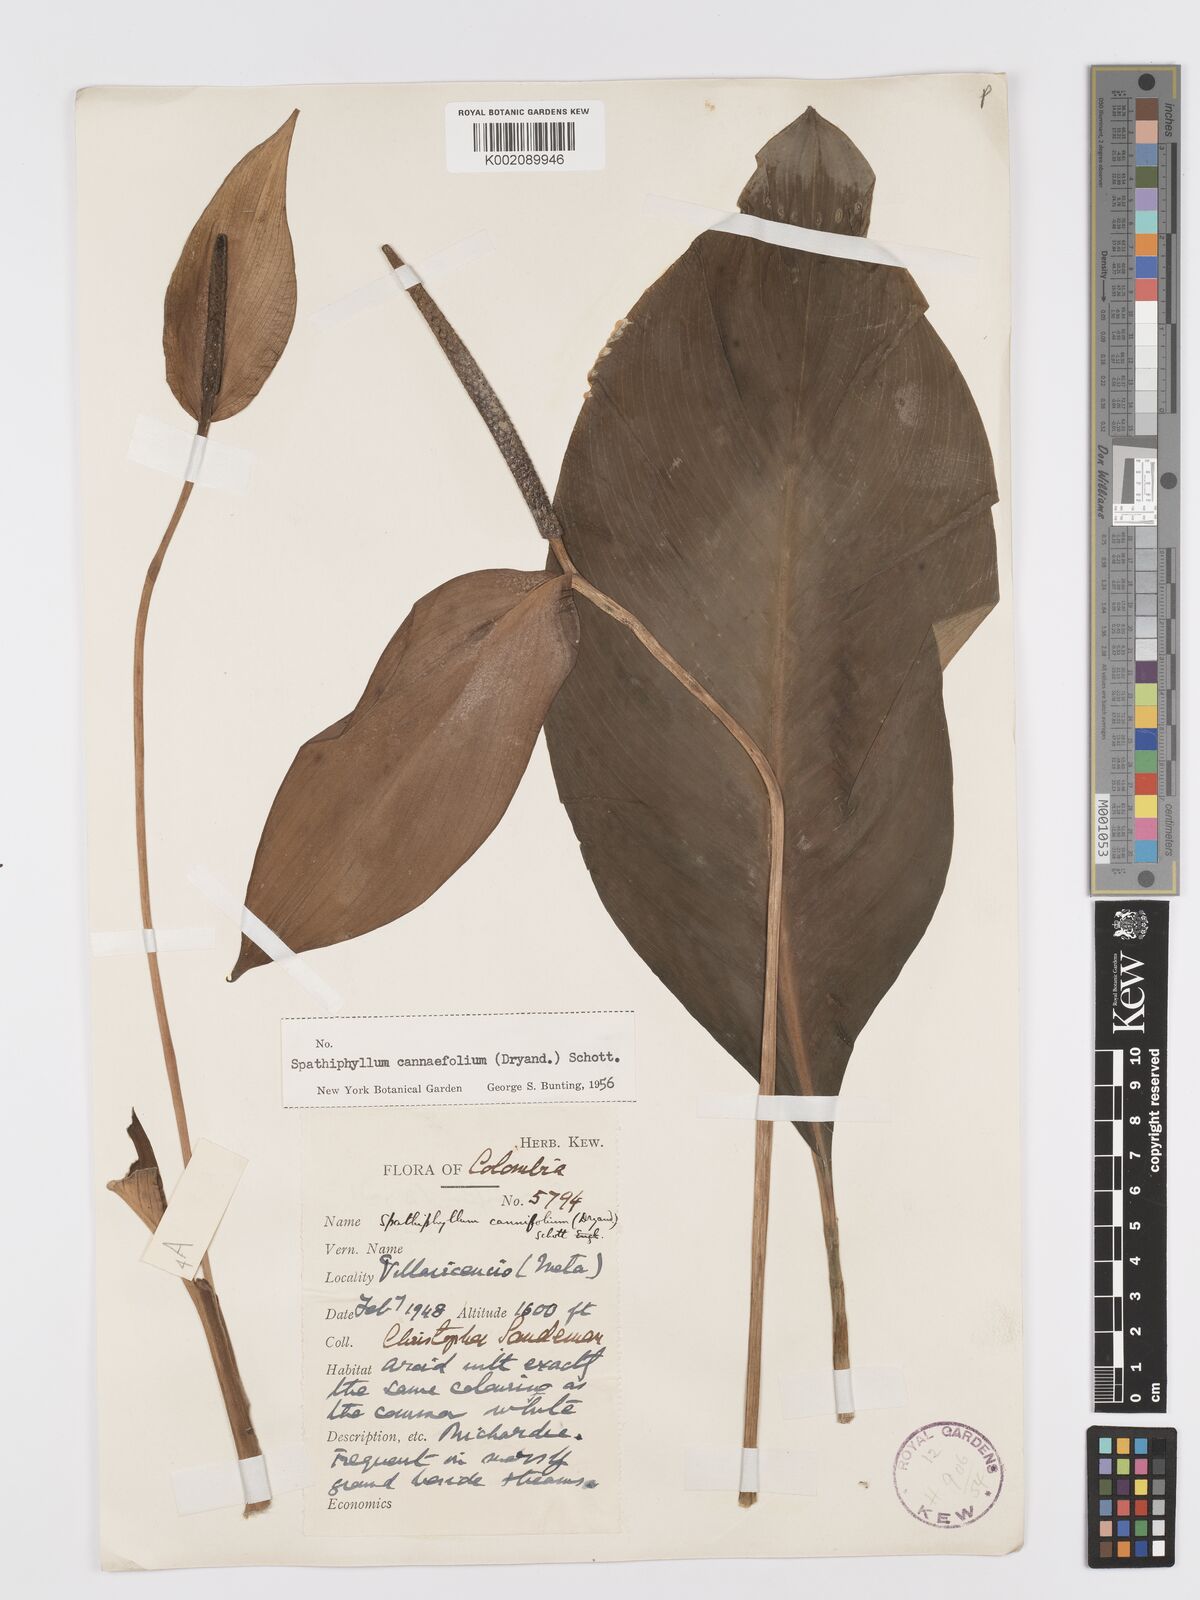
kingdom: Plantae
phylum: Tracheophyta
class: Liliopsida
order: Alismatales
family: Araceae
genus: Spathiphyllum
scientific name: Spathiphyllum cannifolium
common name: Spatheflower
